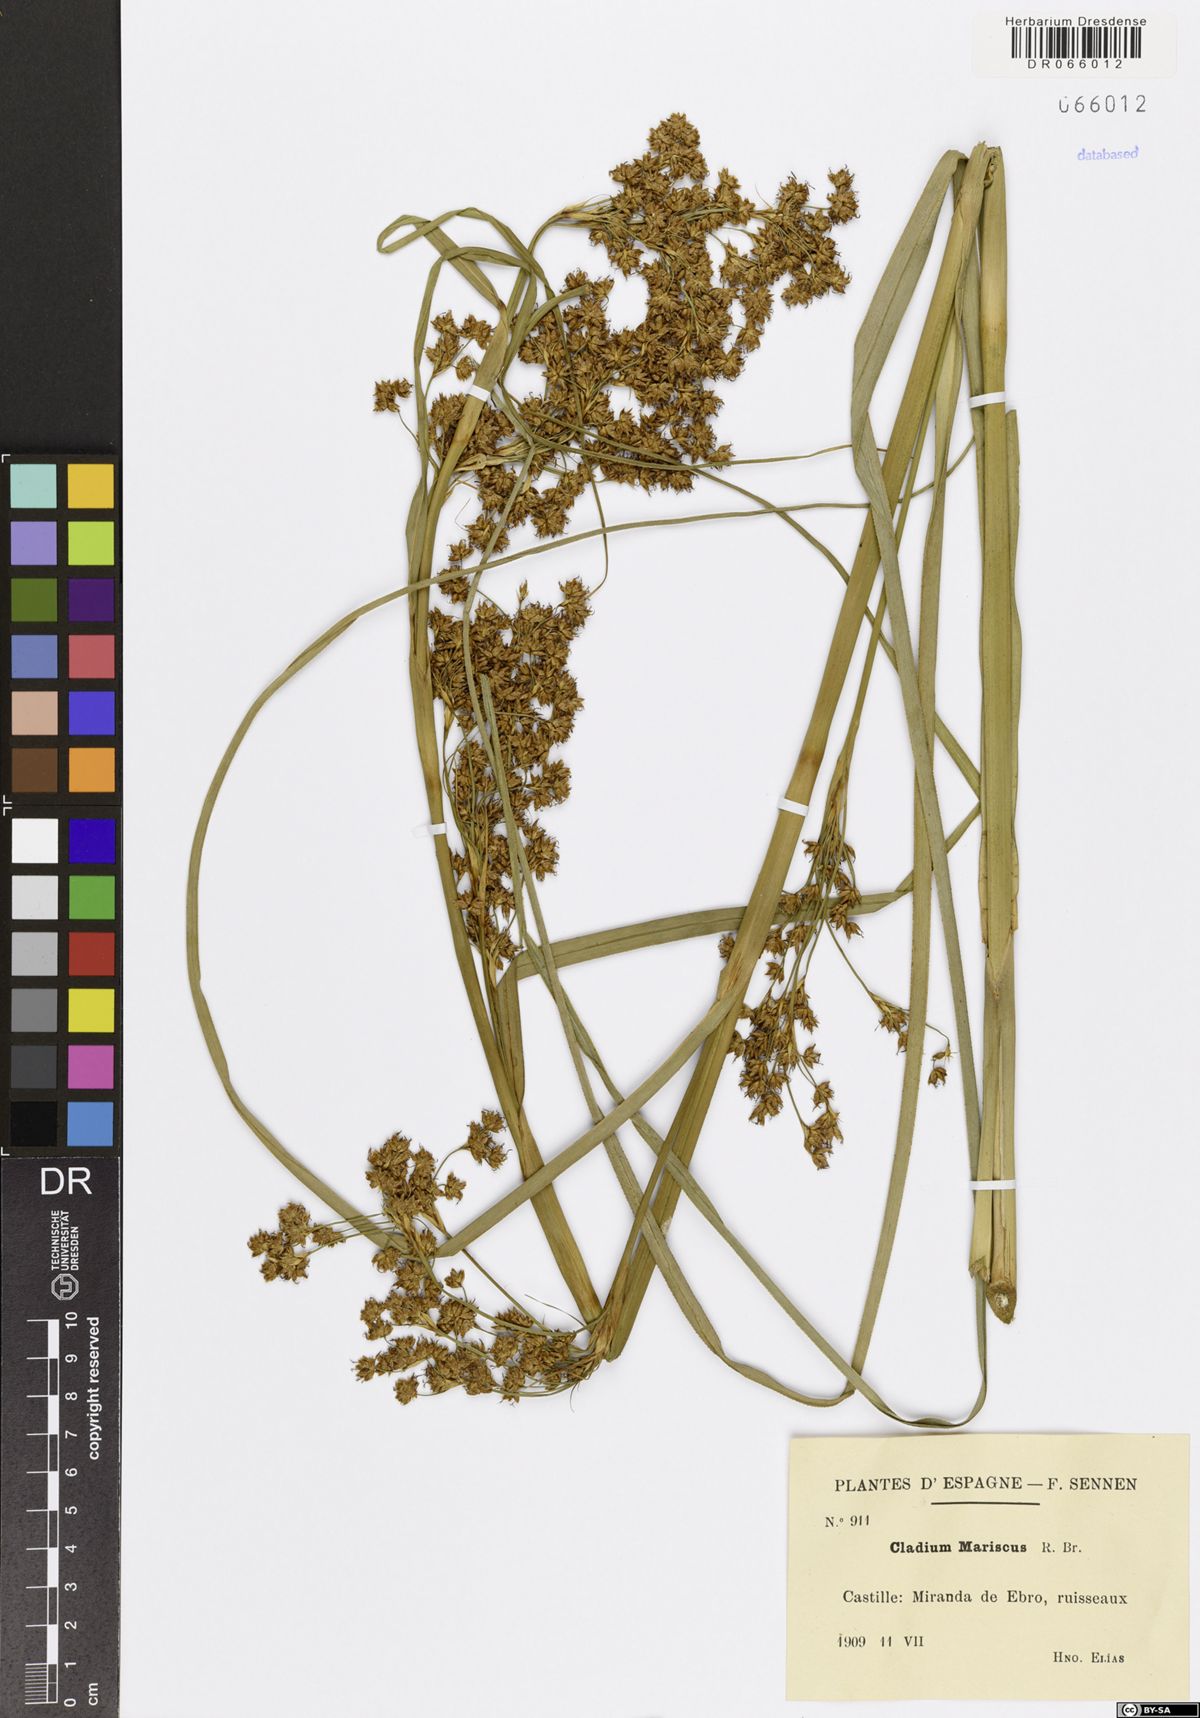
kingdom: Plantae
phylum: Tracheophyta
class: Liliopsida
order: Poales
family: Cyperaceae
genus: Cladium
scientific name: Cladium mariscus
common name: Great fen-sedge
